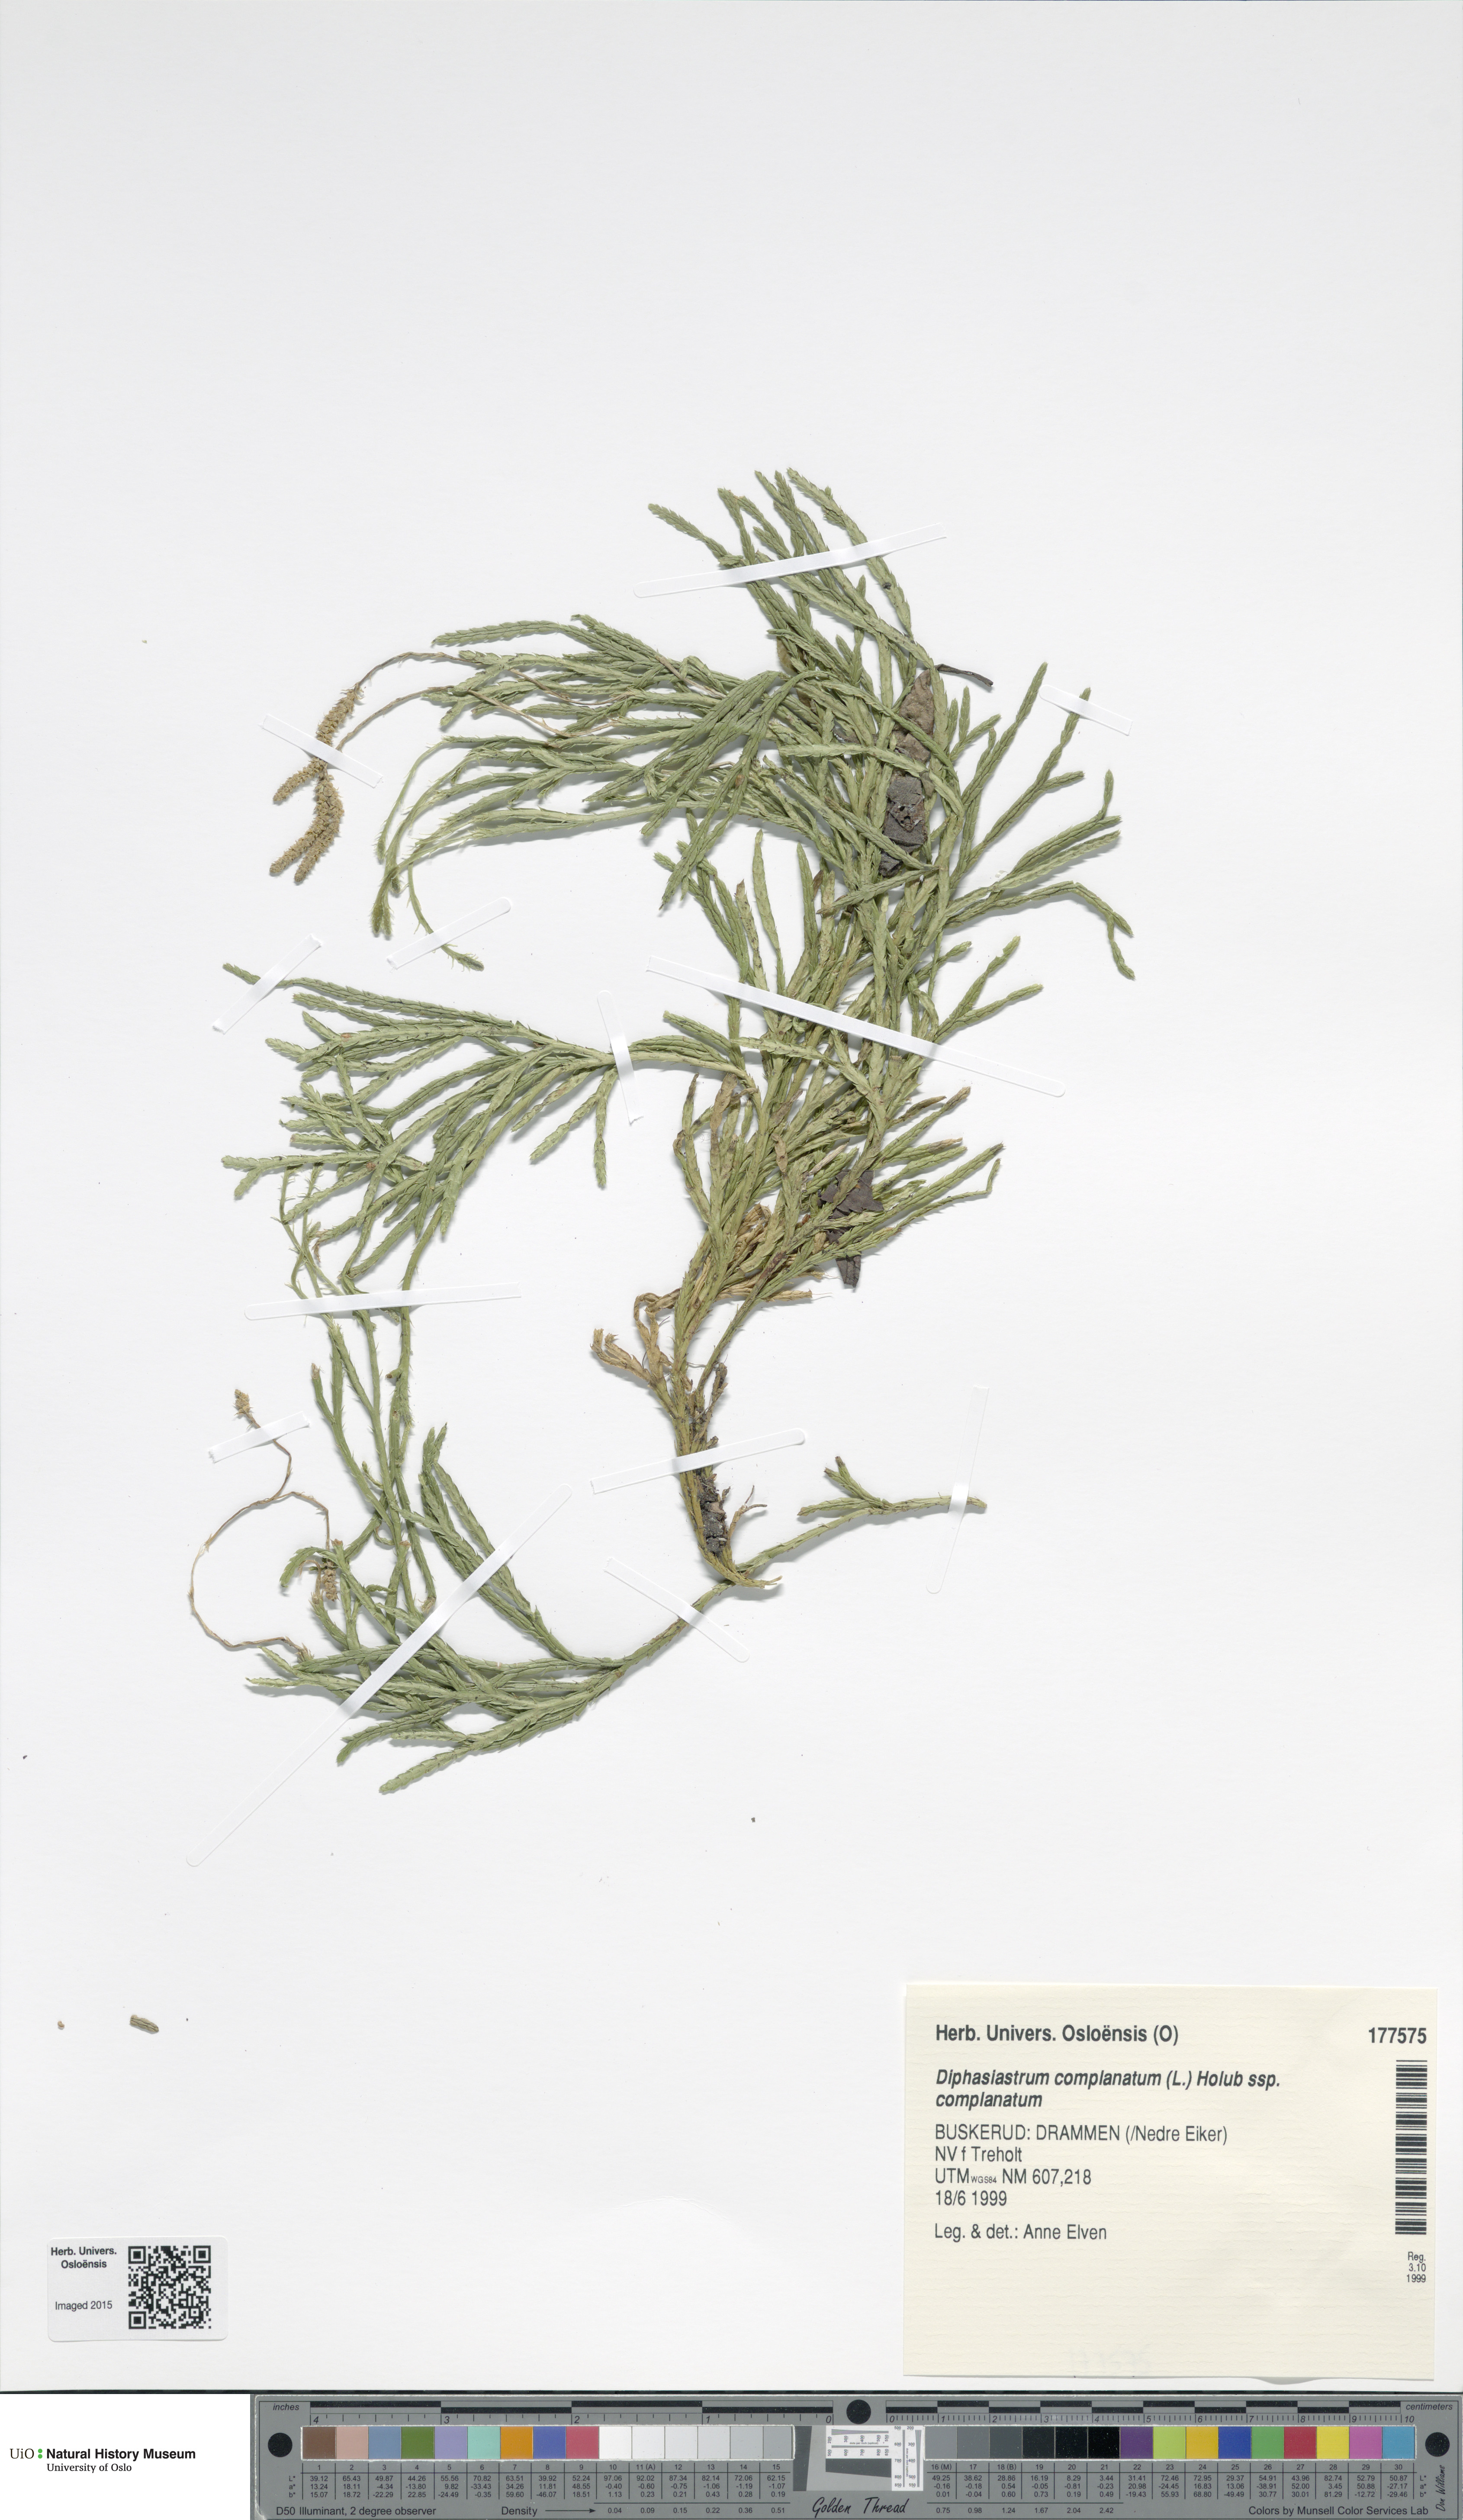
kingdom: Plantae
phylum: Tracheophyta
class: Lycopodiopsida
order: Lycopodiales
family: Lycopodiaceae
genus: Diphasiastrum
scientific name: Diphasiastrum complanatum
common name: Northern running-pine
